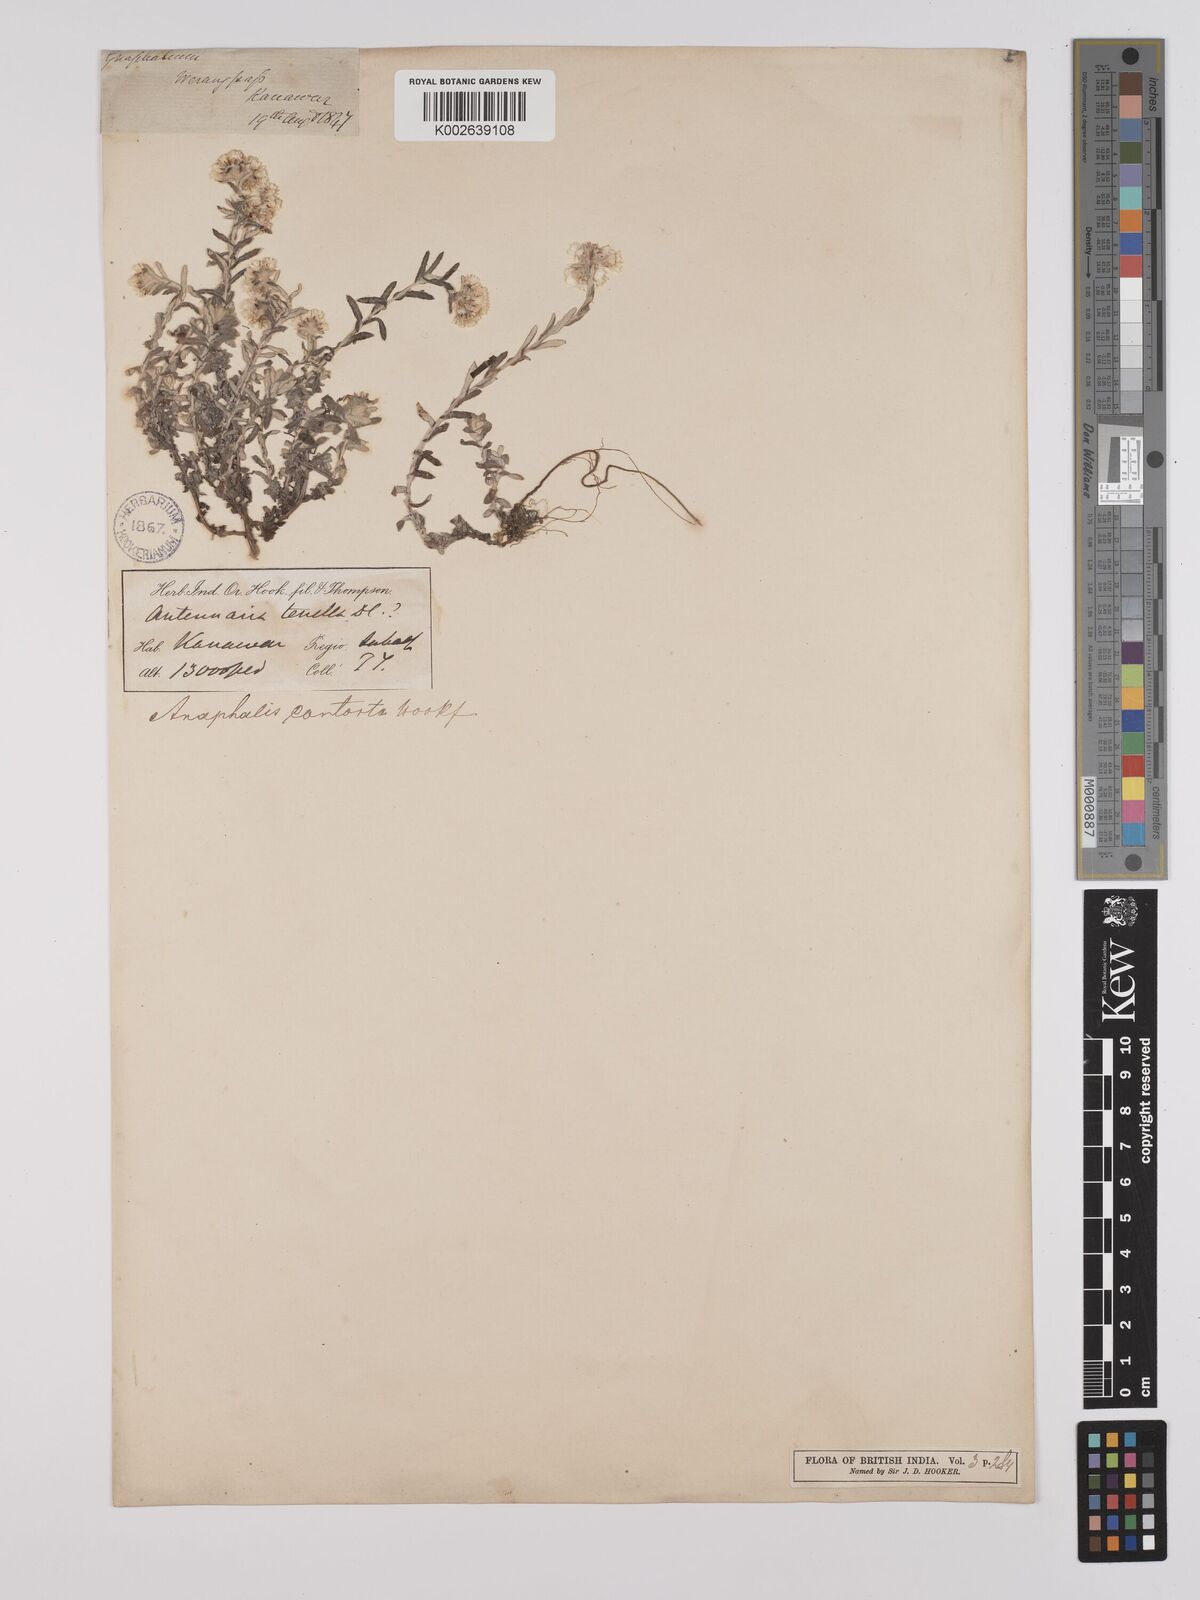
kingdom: Plantae
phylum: Tracheophyta
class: Magnoliopsida
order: Asterales
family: Asteraceae
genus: Anaphalis
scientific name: Anaphalis contorta
